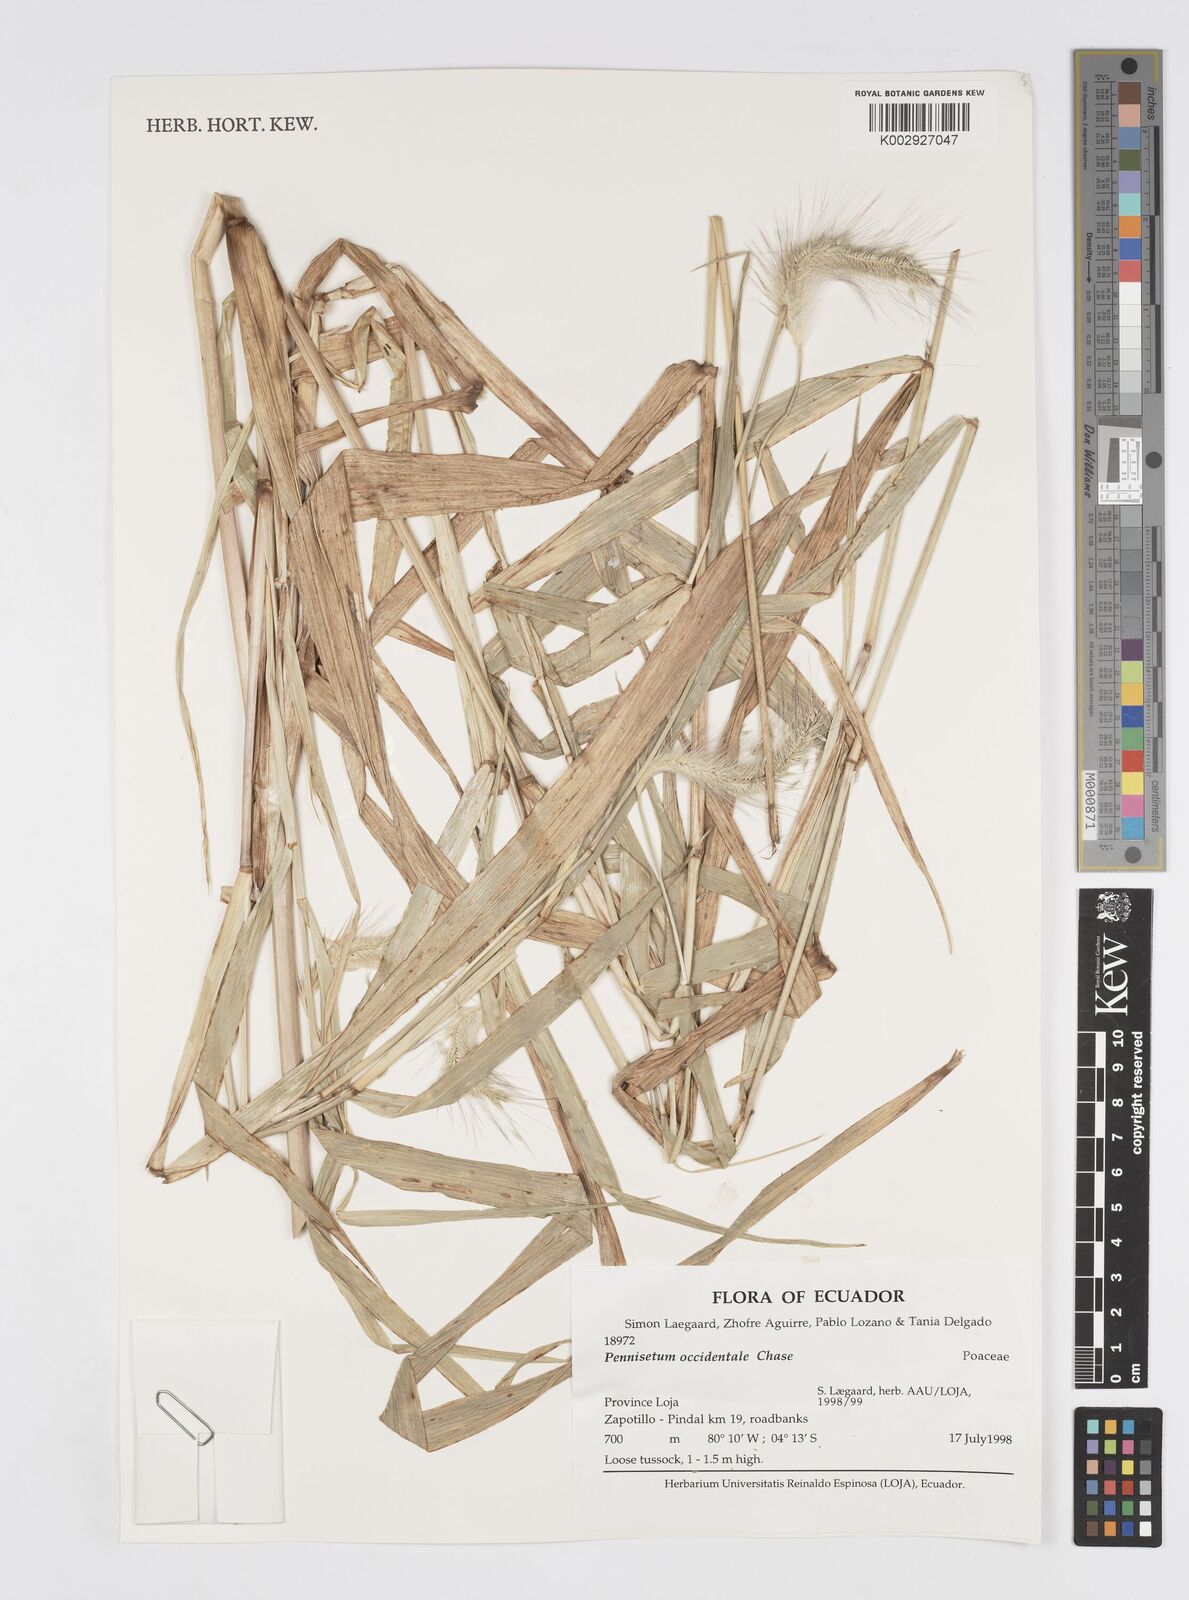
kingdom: Plantae
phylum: Tracheophyta
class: Liliopsida
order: Poales
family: Poaceae
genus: Cenchrus
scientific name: Cenchrus occidentalis
